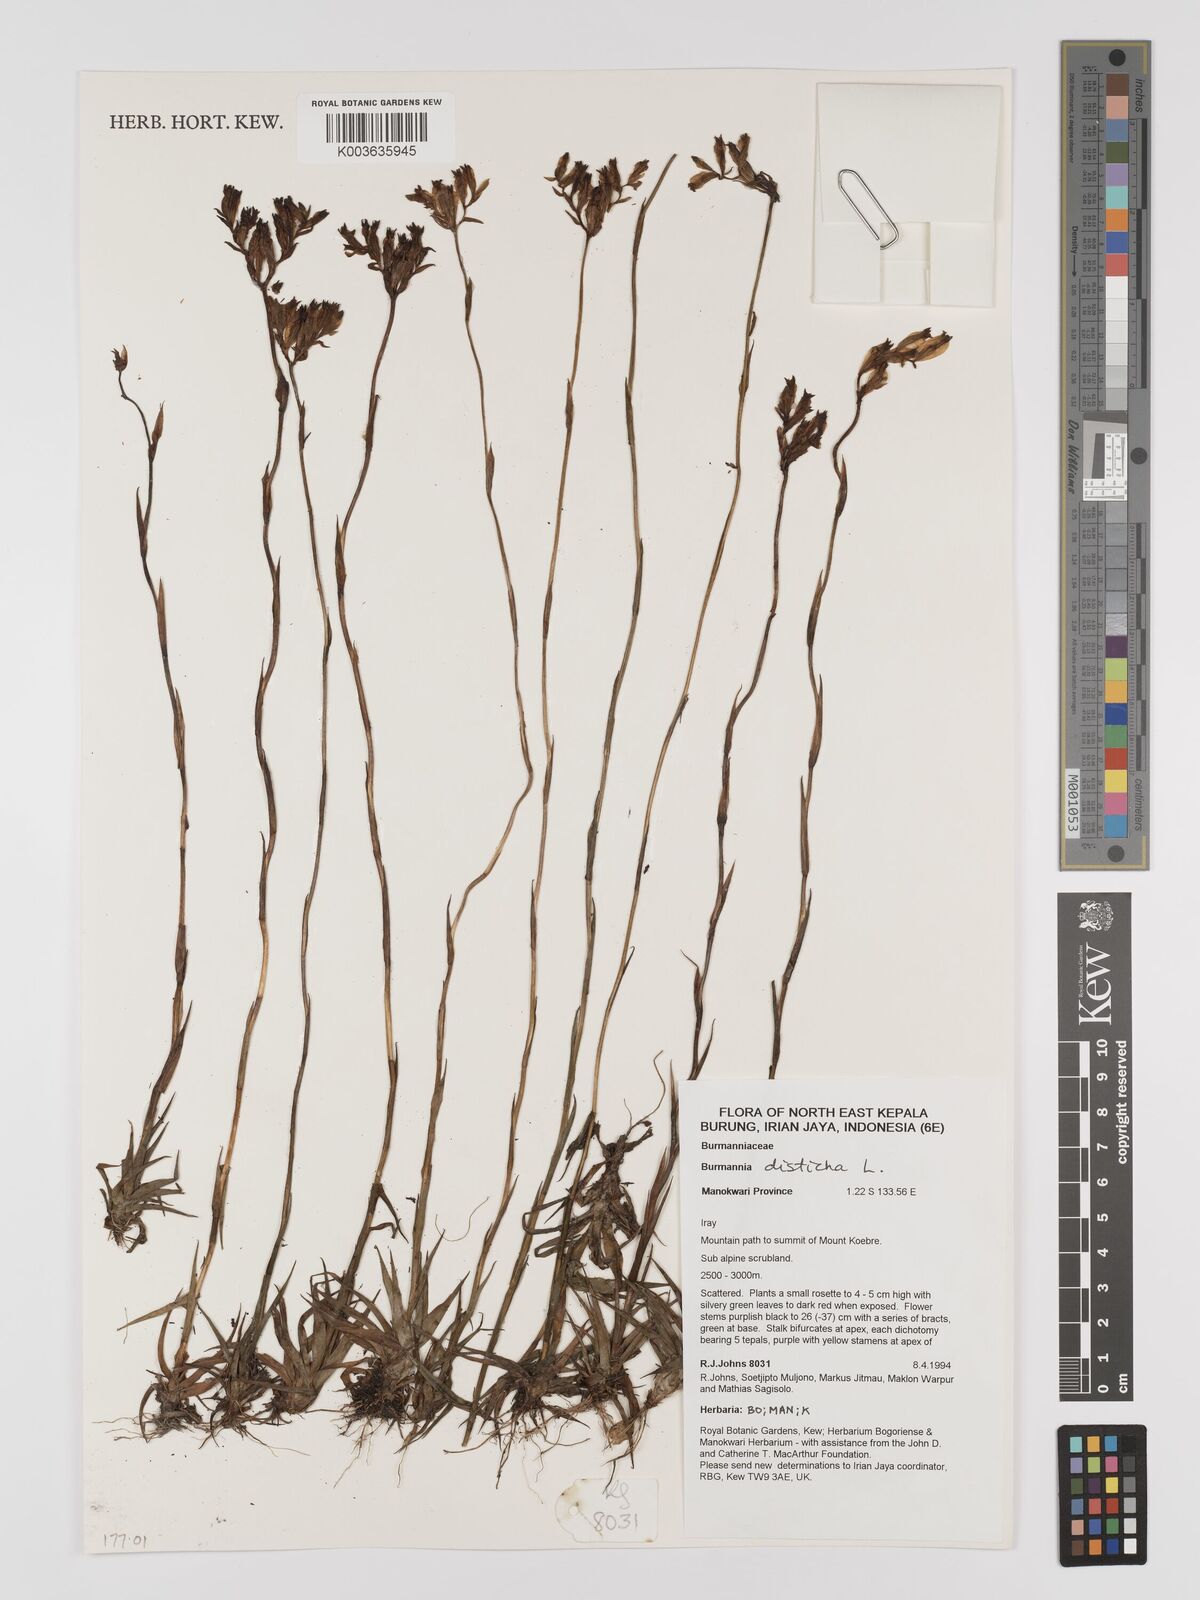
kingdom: Plantae
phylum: Tracheophyta
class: Liliopsida
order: Dioscoreales
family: Burmanniaceae
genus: Burmannia
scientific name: Burmannia disticha
